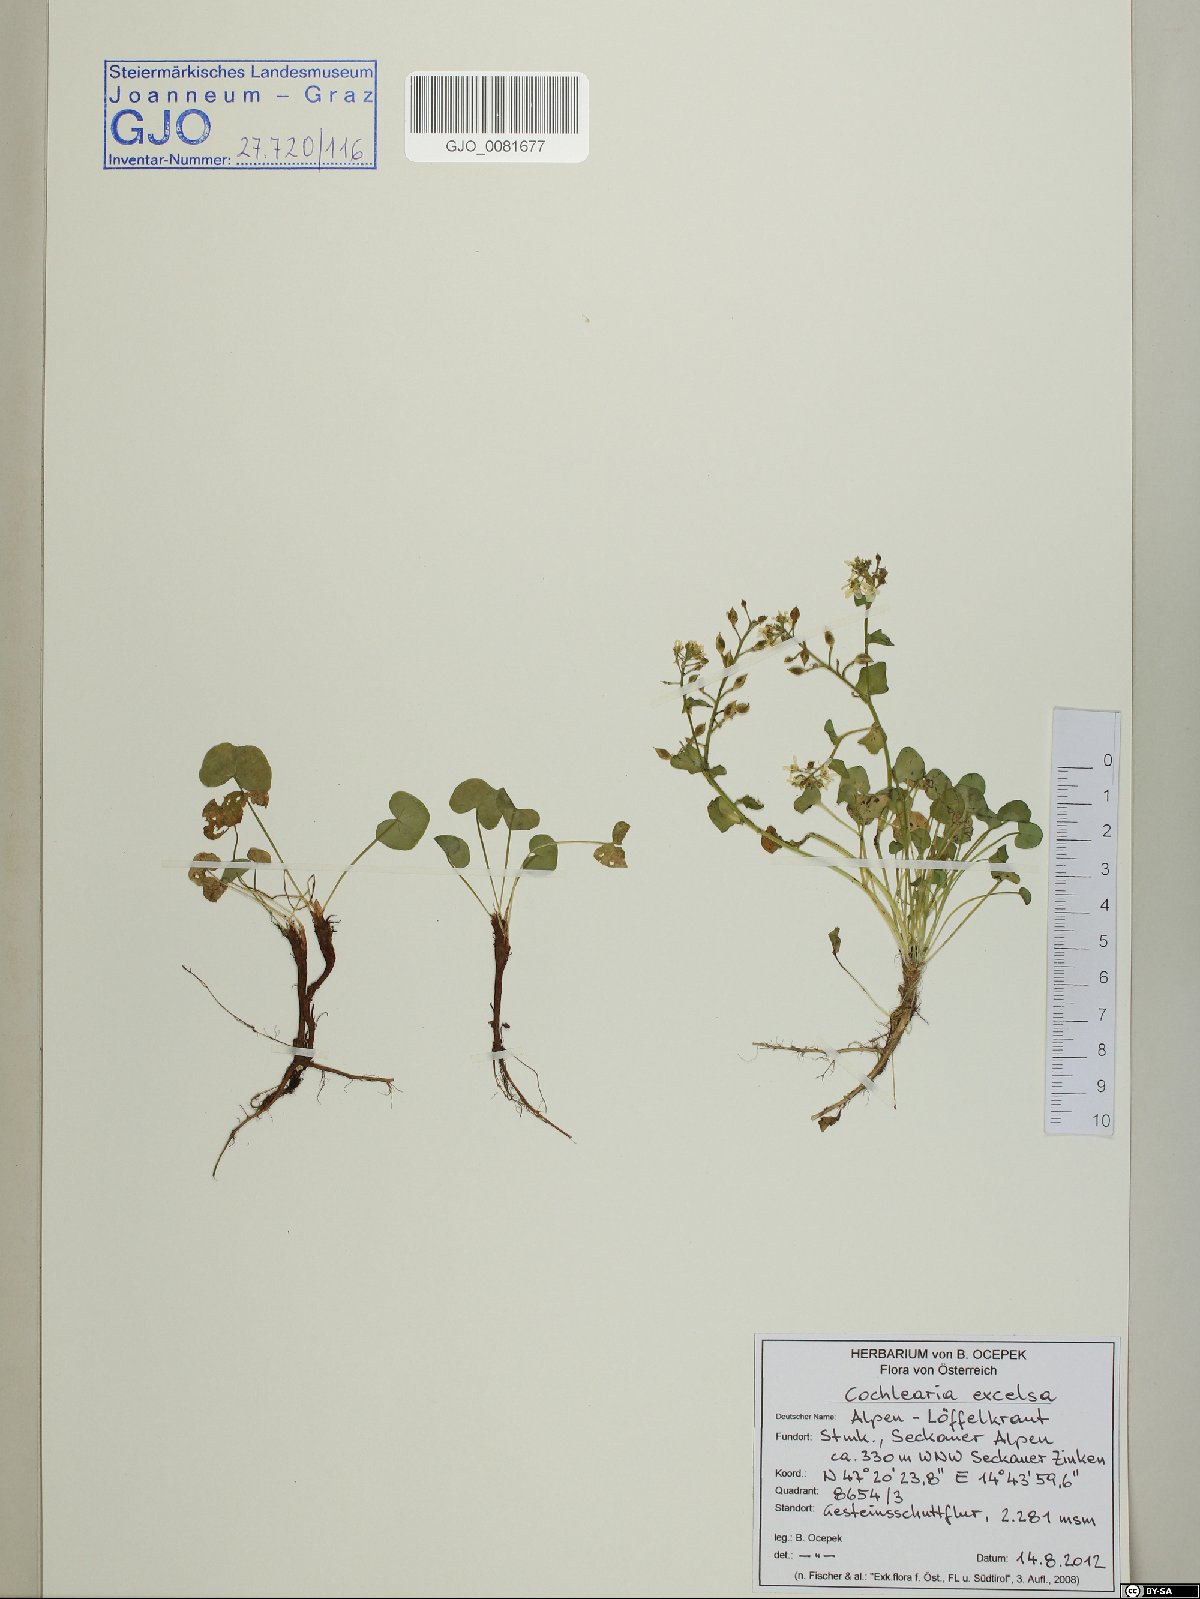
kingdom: Plantae
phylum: Tracheophyta
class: Magnoliopsida
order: Brassicales
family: Brassicaceae
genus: Cochlearia
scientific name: Cochlearia pyrenaica
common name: Upland scurvy-grass
